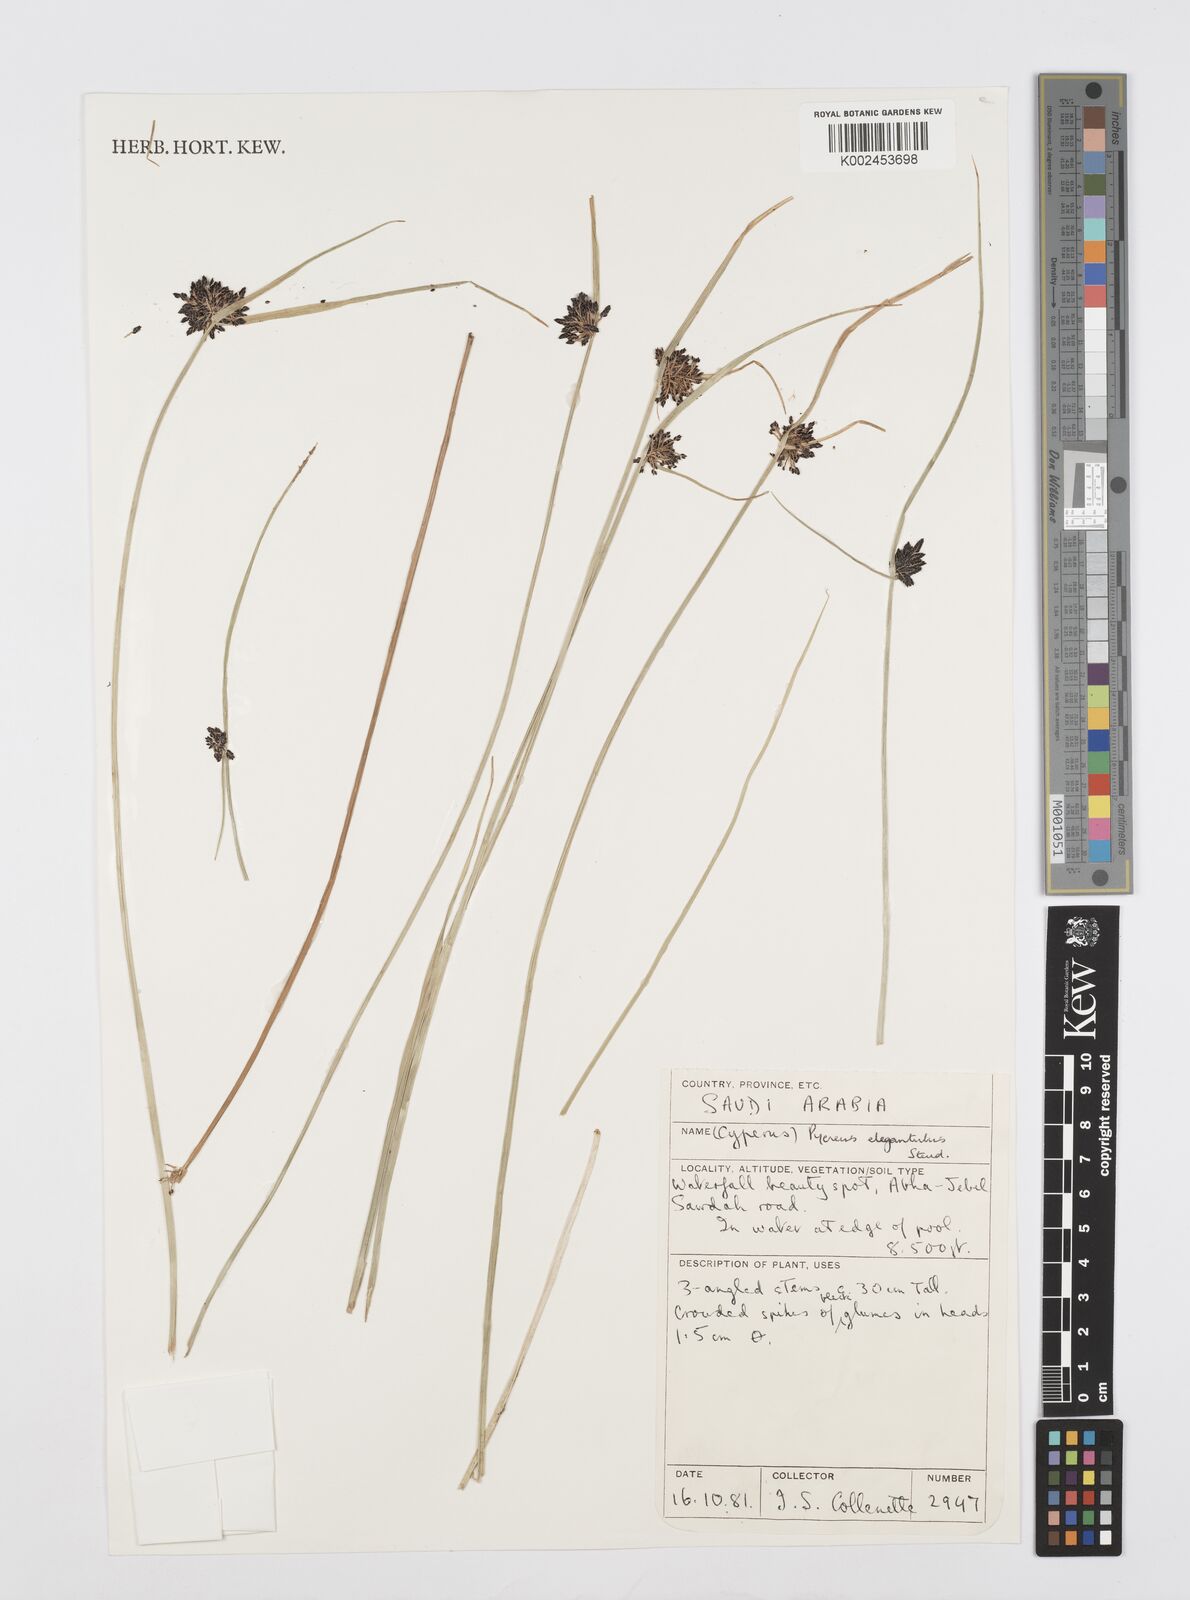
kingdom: Plantae
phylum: Tracheophyta
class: Liliopsida
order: Poales
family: Cyperaceae
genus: Cyperus
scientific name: Cyperus elegantulus
